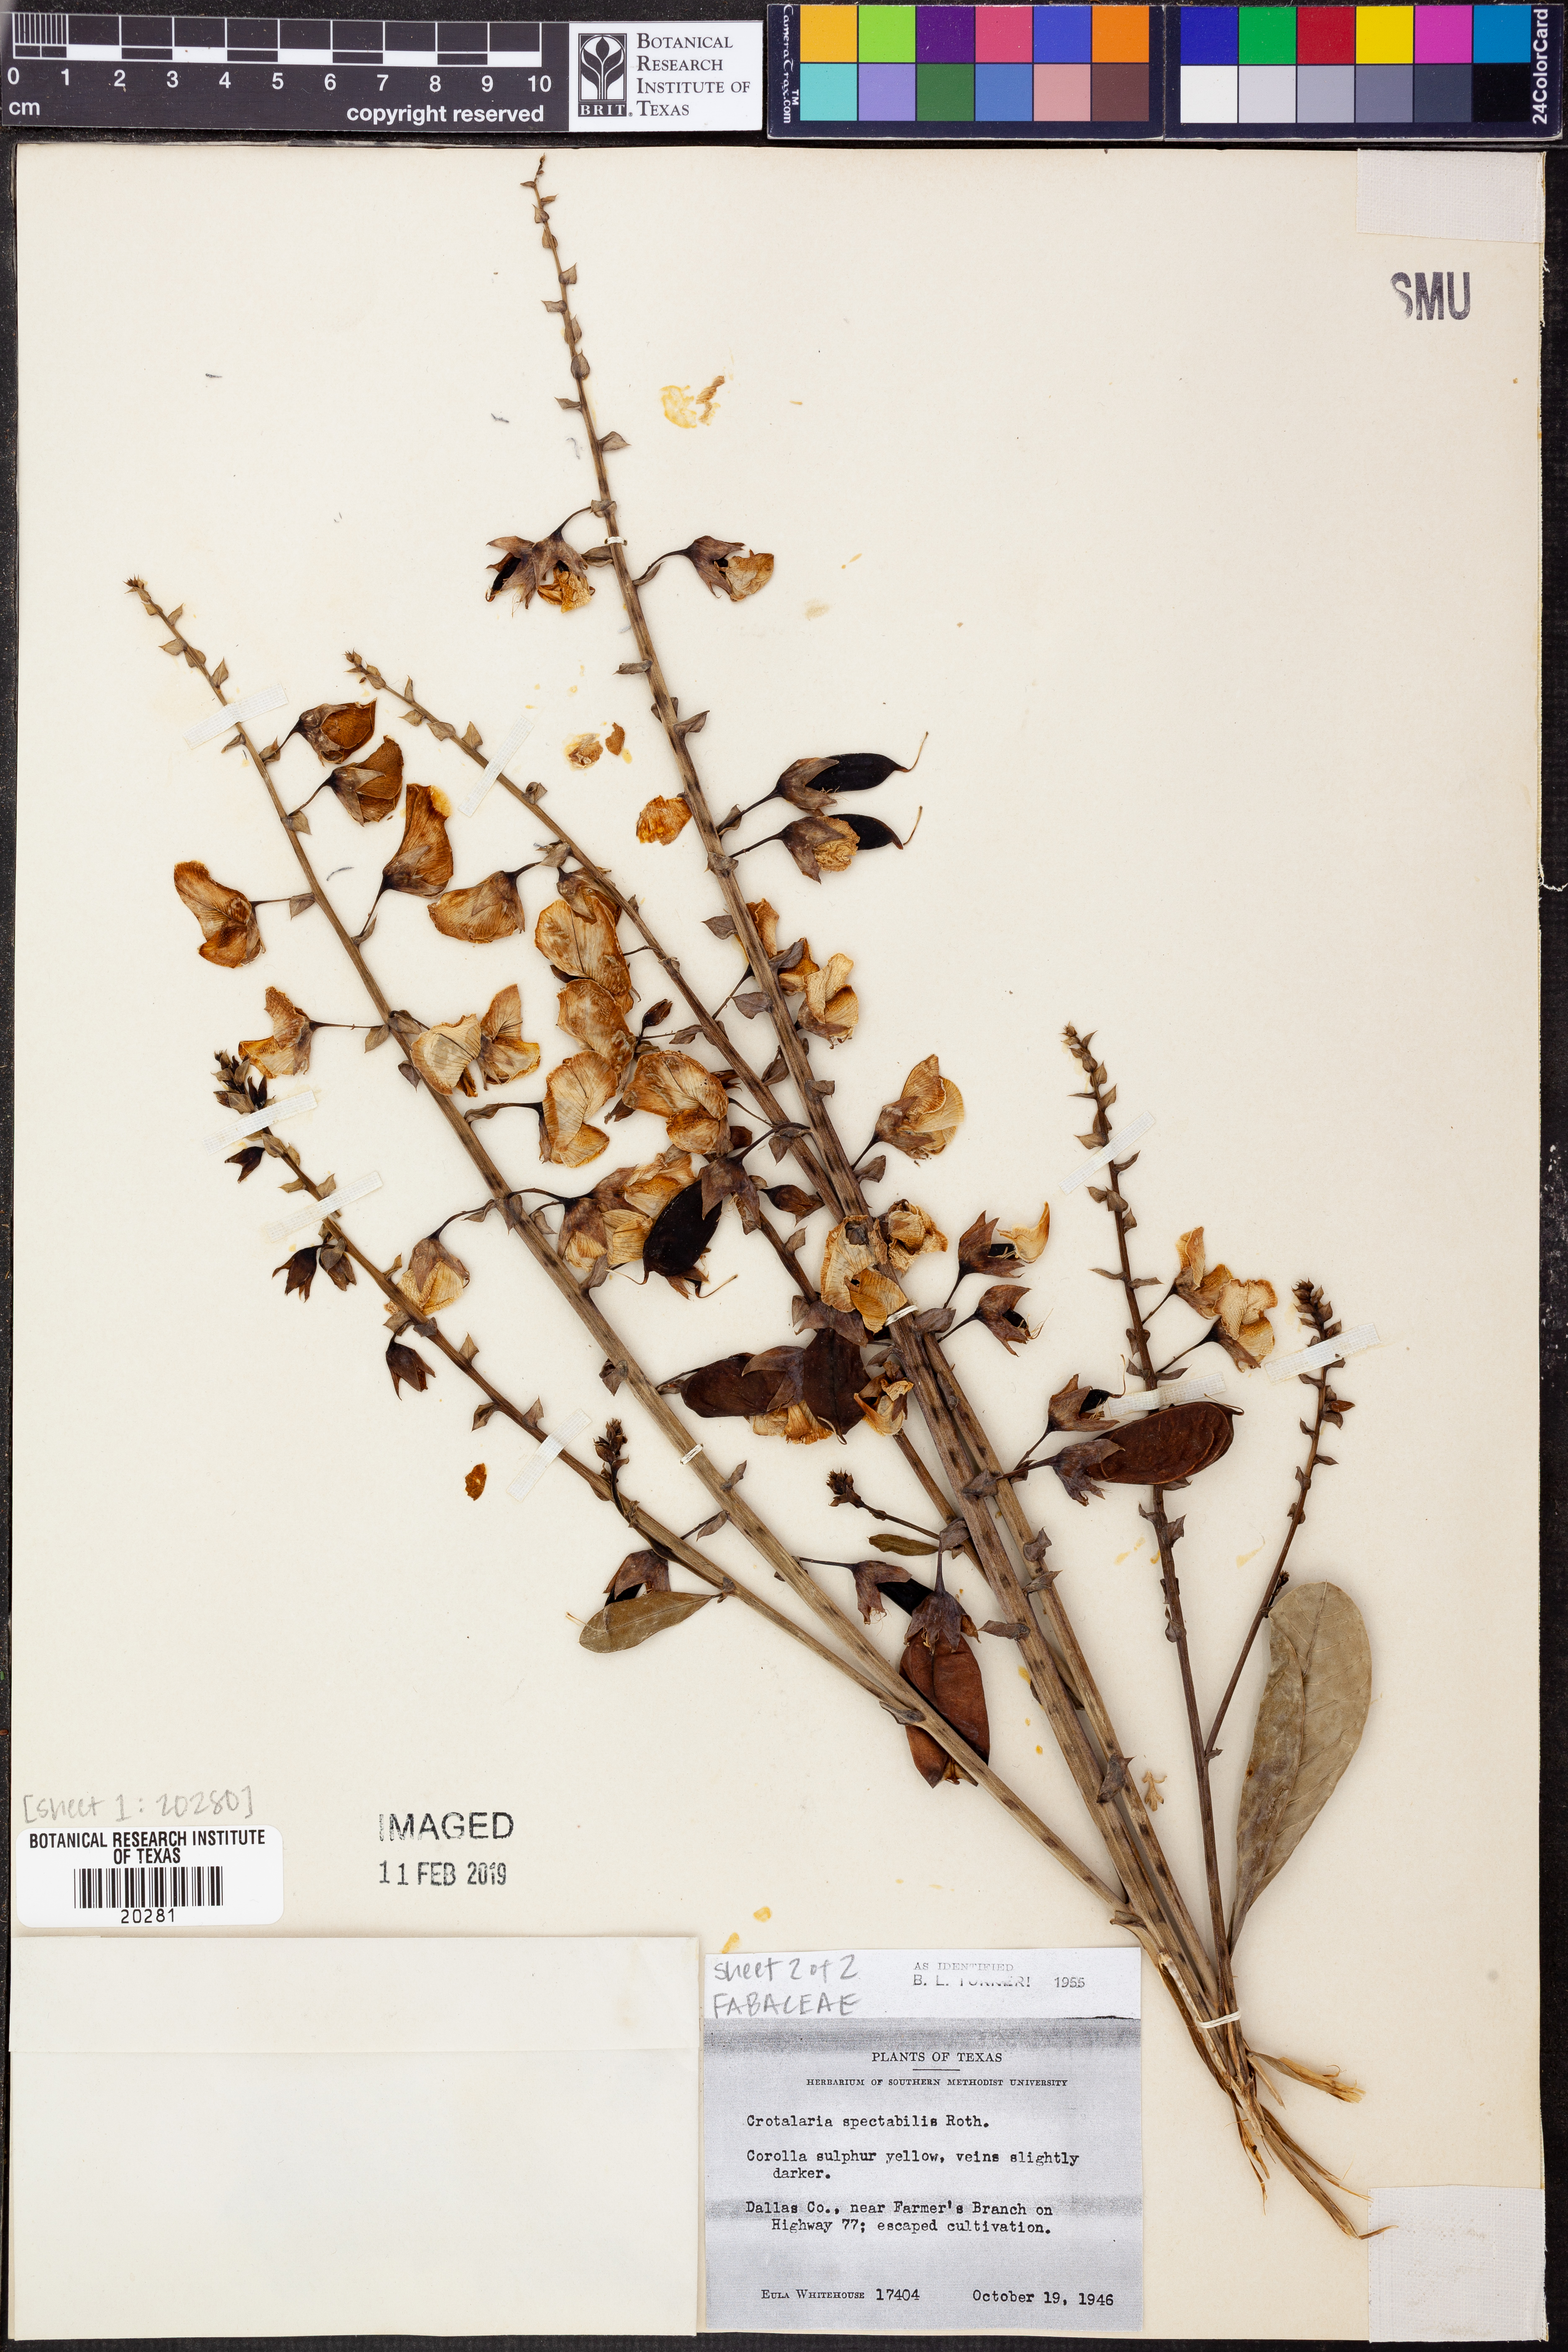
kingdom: Plantae
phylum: Tracheophyta
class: Magnoliopsida
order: Fabales
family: Fabaceae
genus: Crotalaria
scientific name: Crotalaria spectabilis
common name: Showy rattlebox
